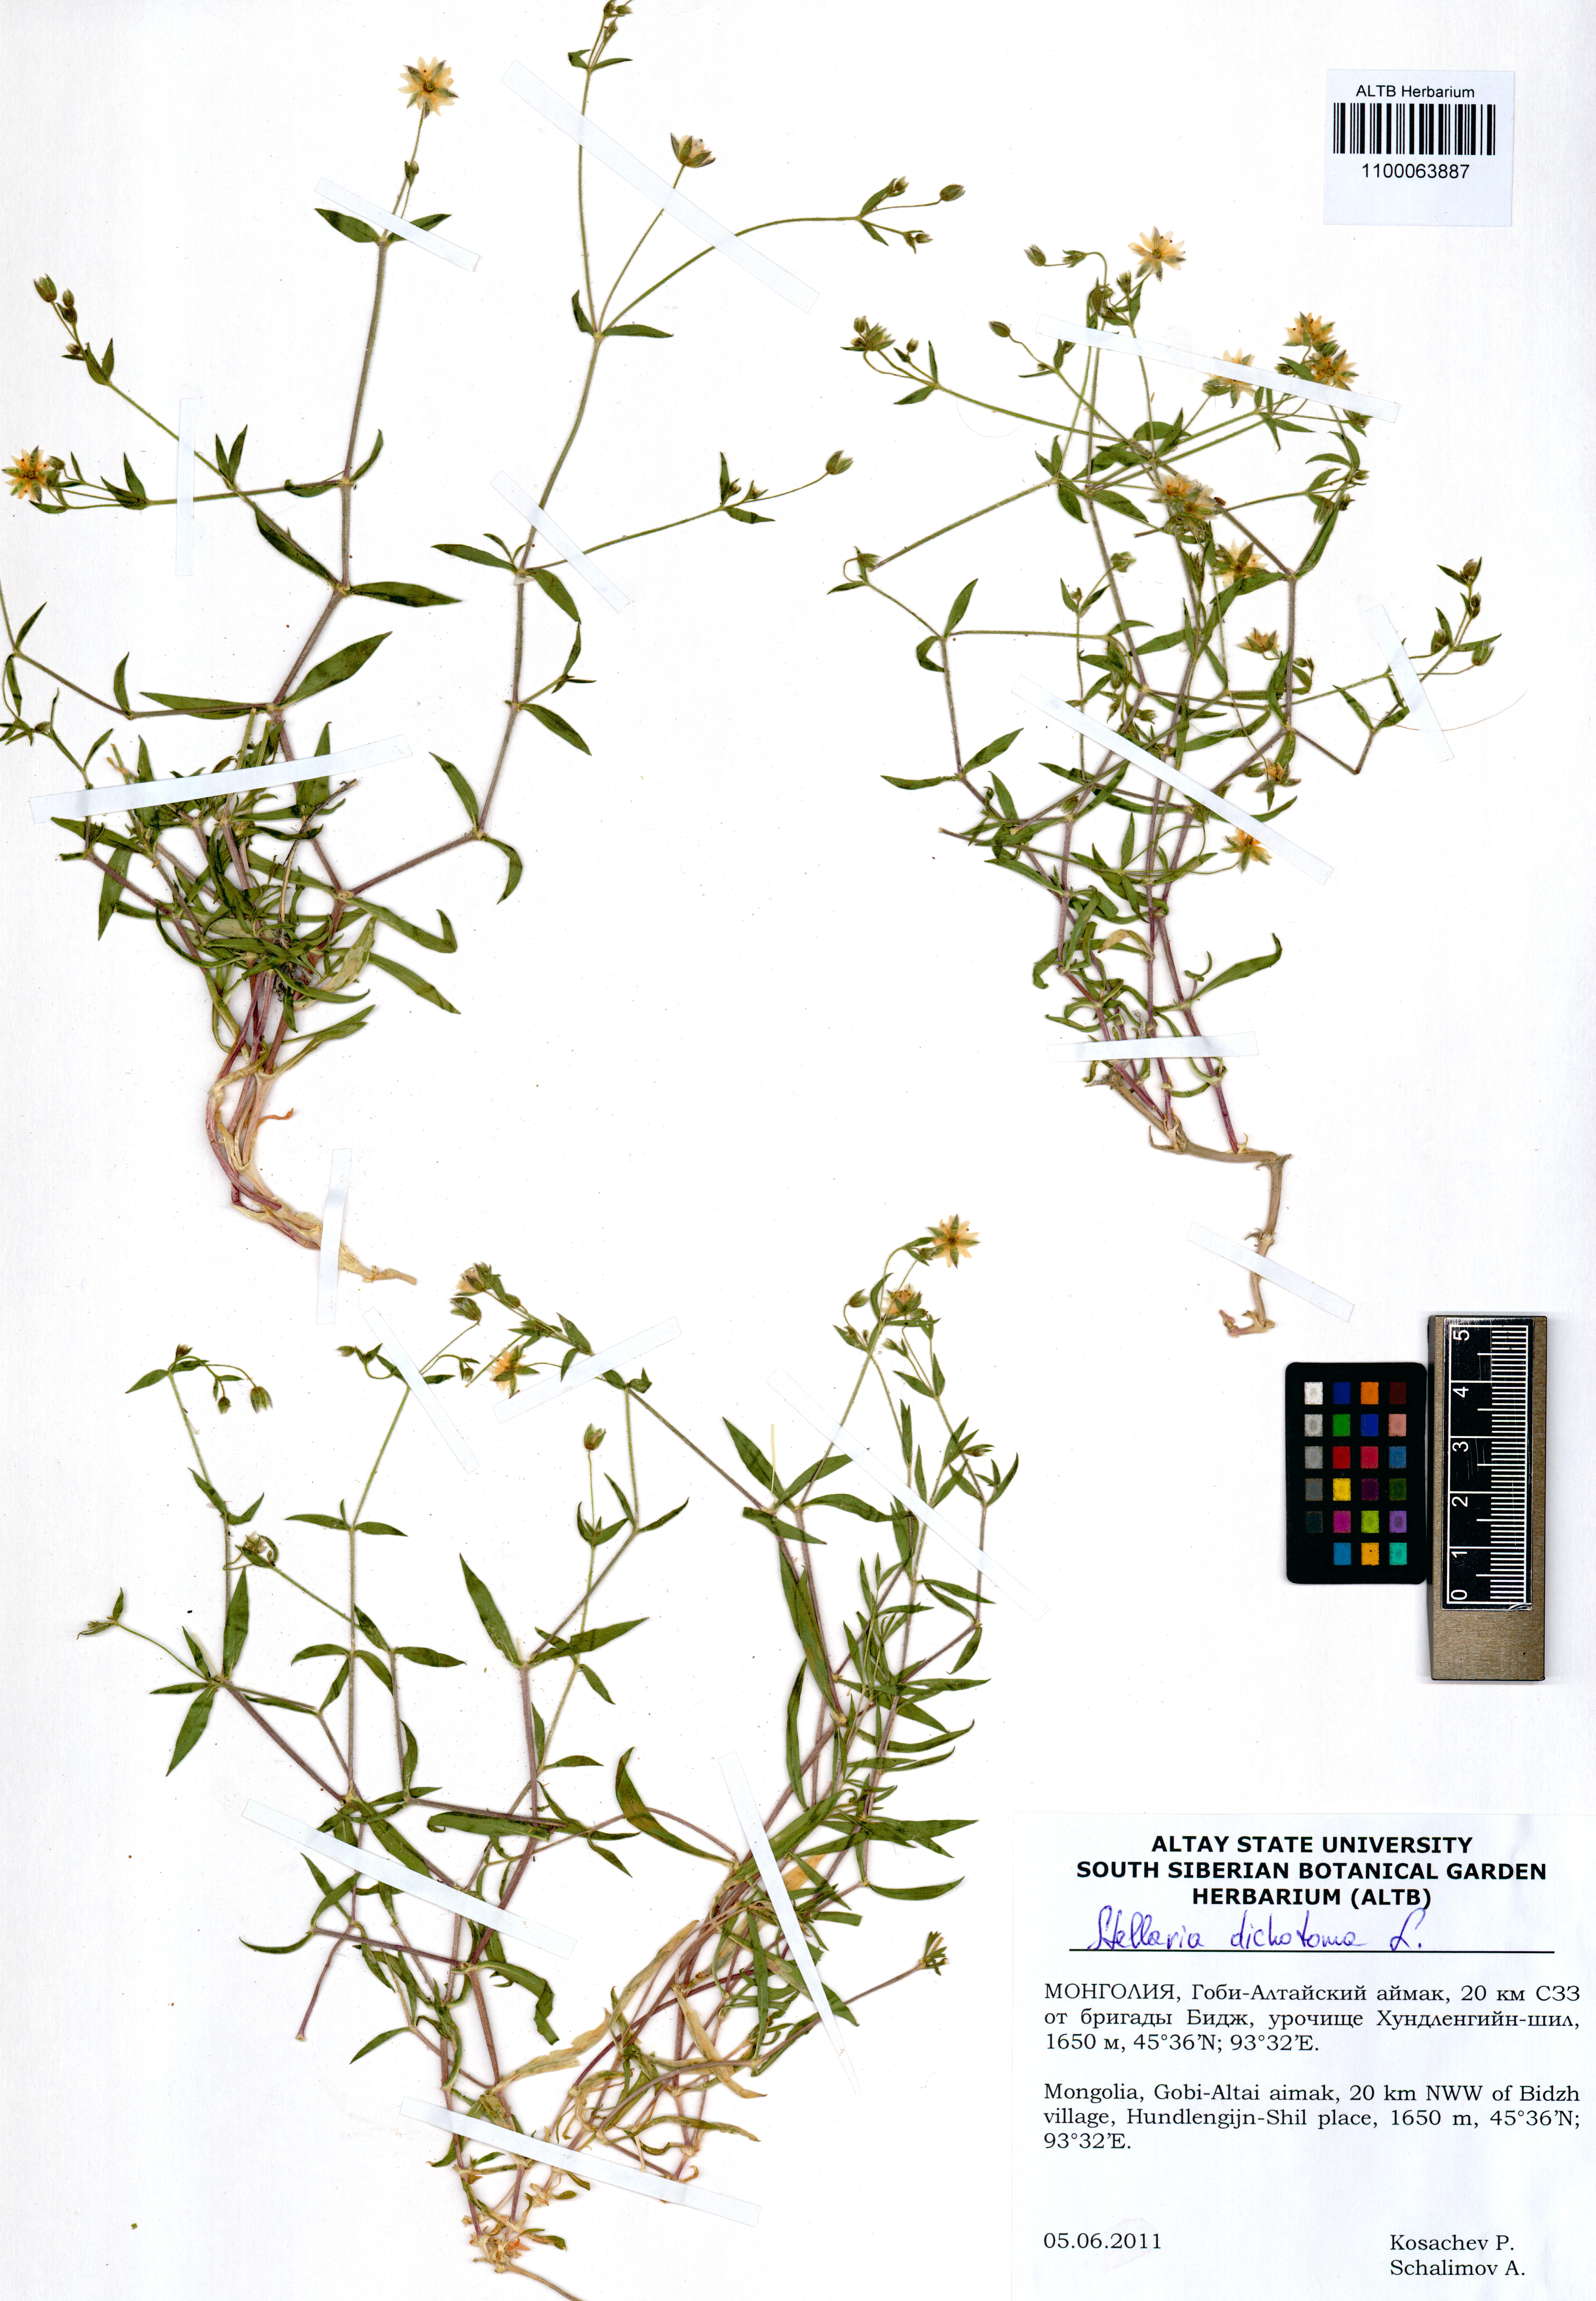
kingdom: Plantae
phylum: Tracheophyta
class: Magnoliopsida
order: Caryophyllales
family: Caryophyllaceae
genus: Mesostemma
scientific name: Mesostemma dichotomum
